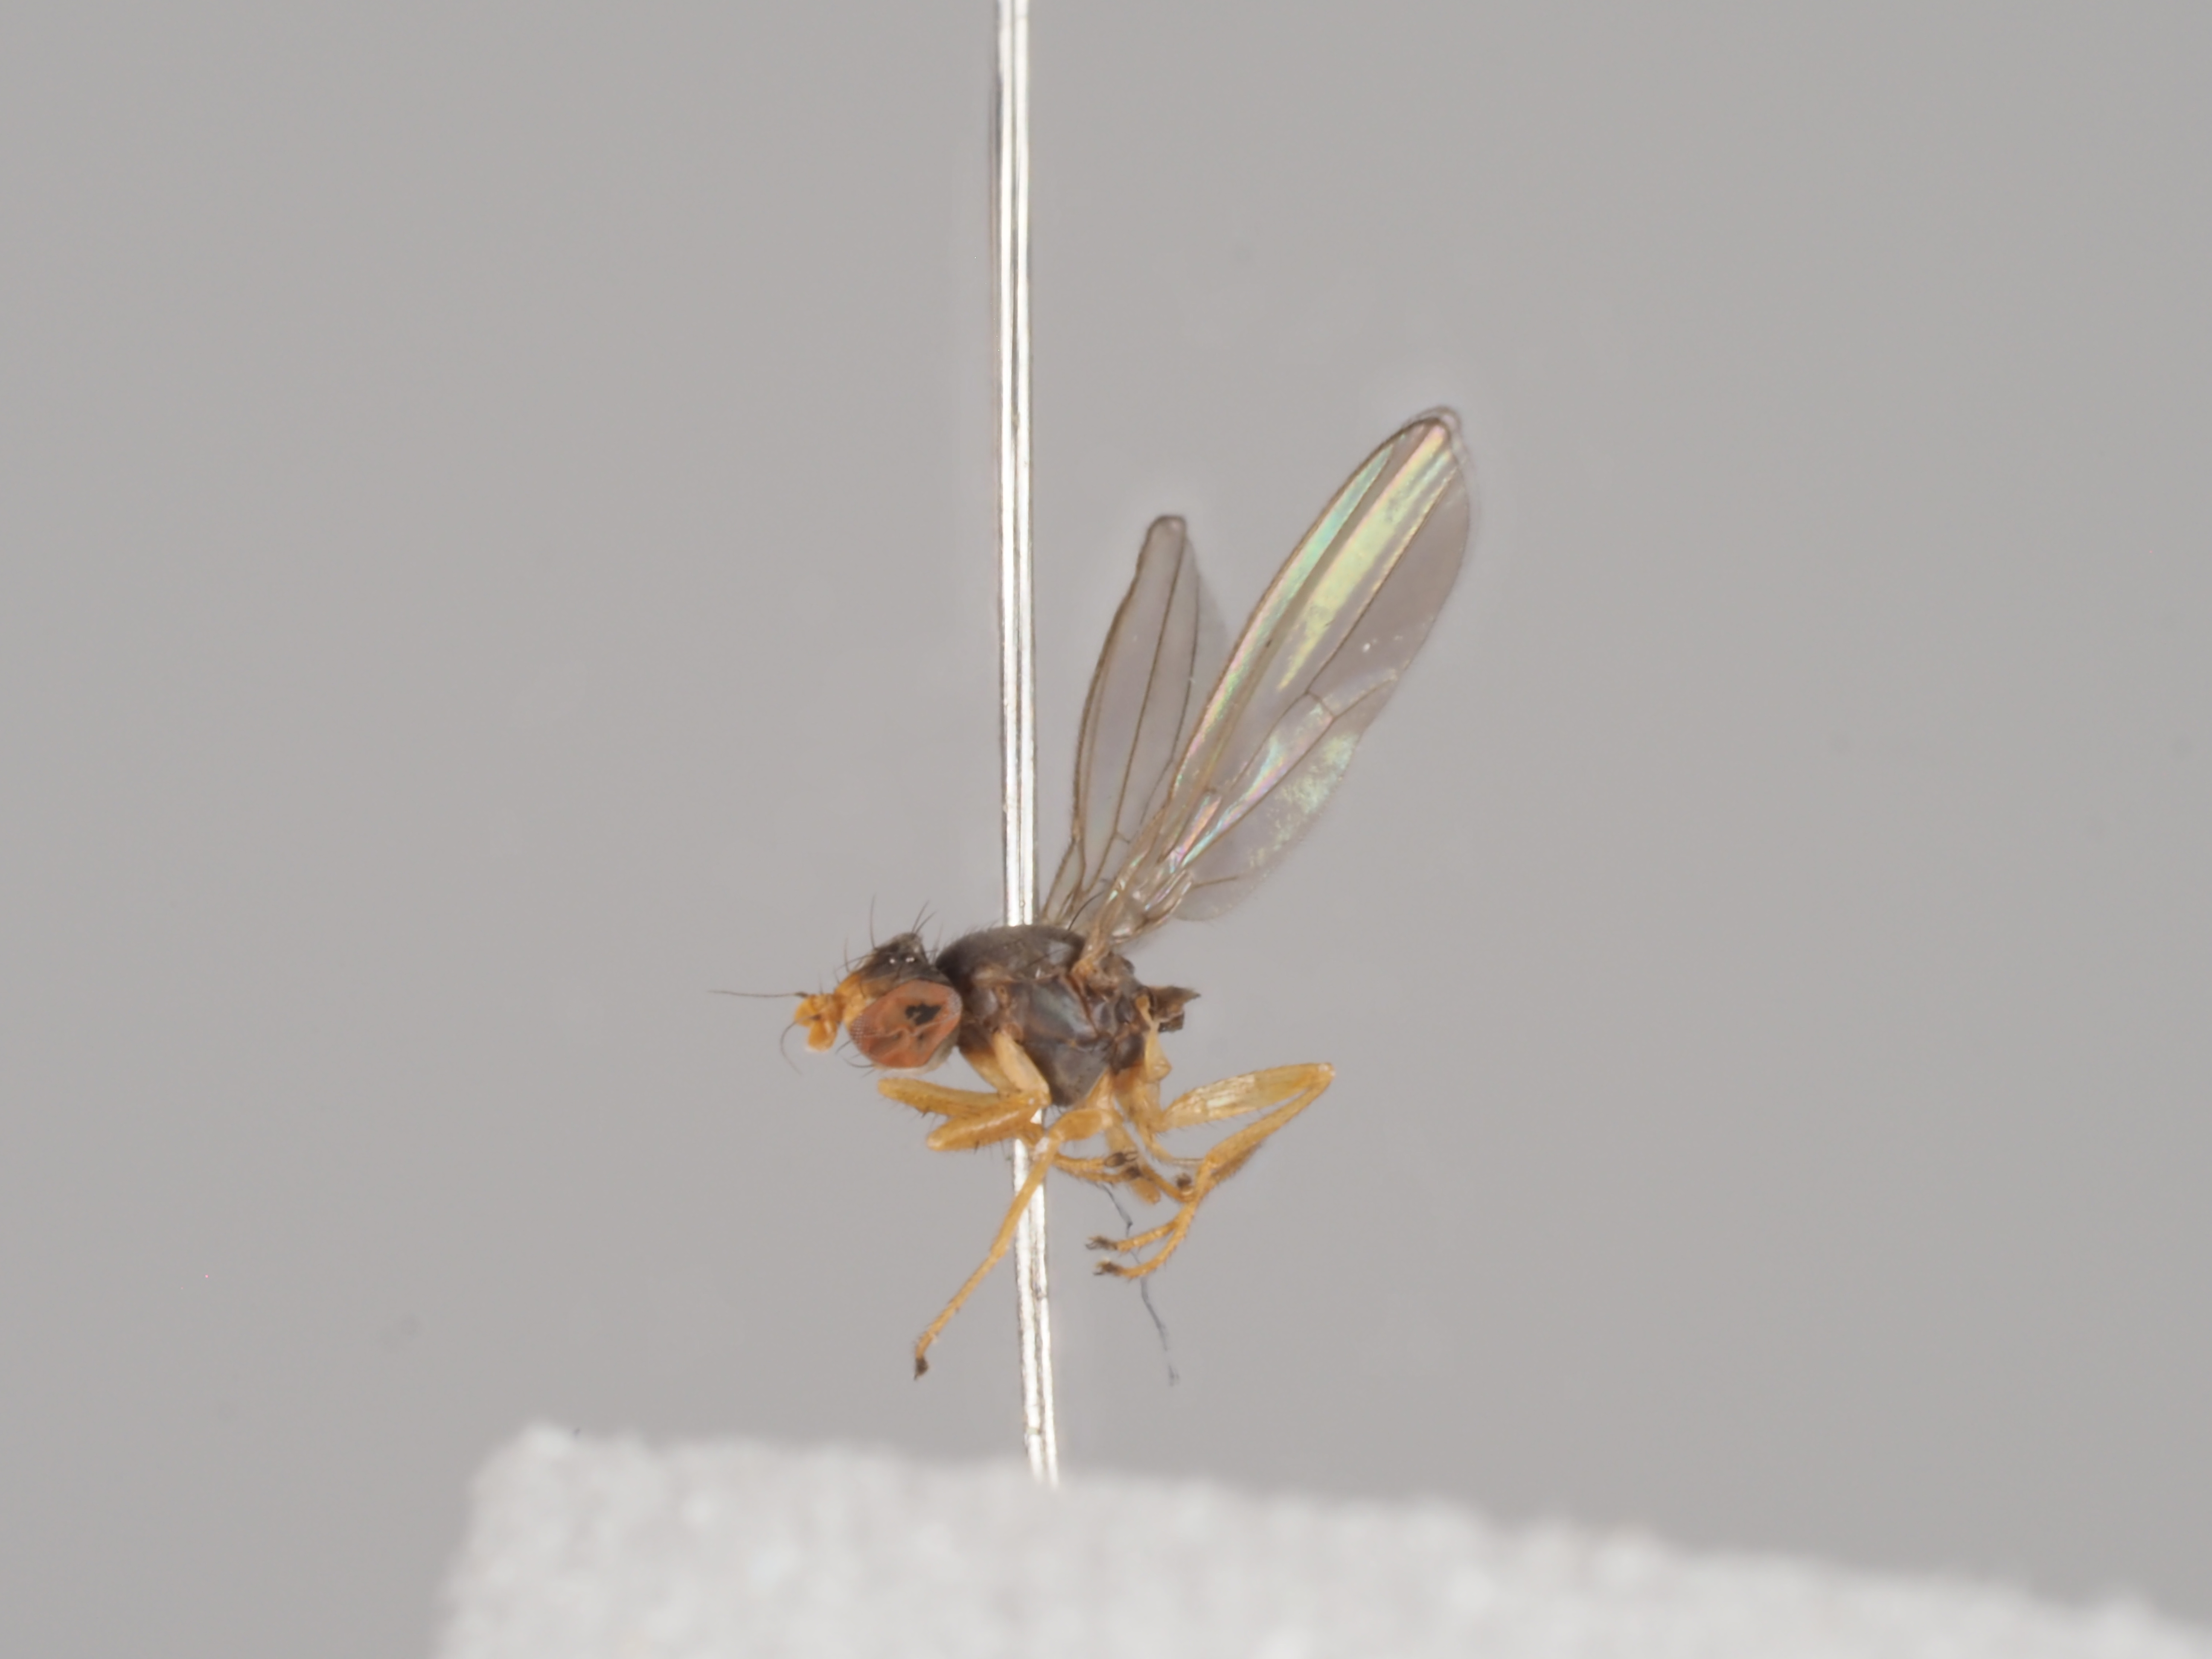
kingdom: Animalia
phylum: Arthropoda
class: Insecta
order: Diptera
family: Anthomyzidae
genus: Anthomyza
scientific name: Anthomyza collini
